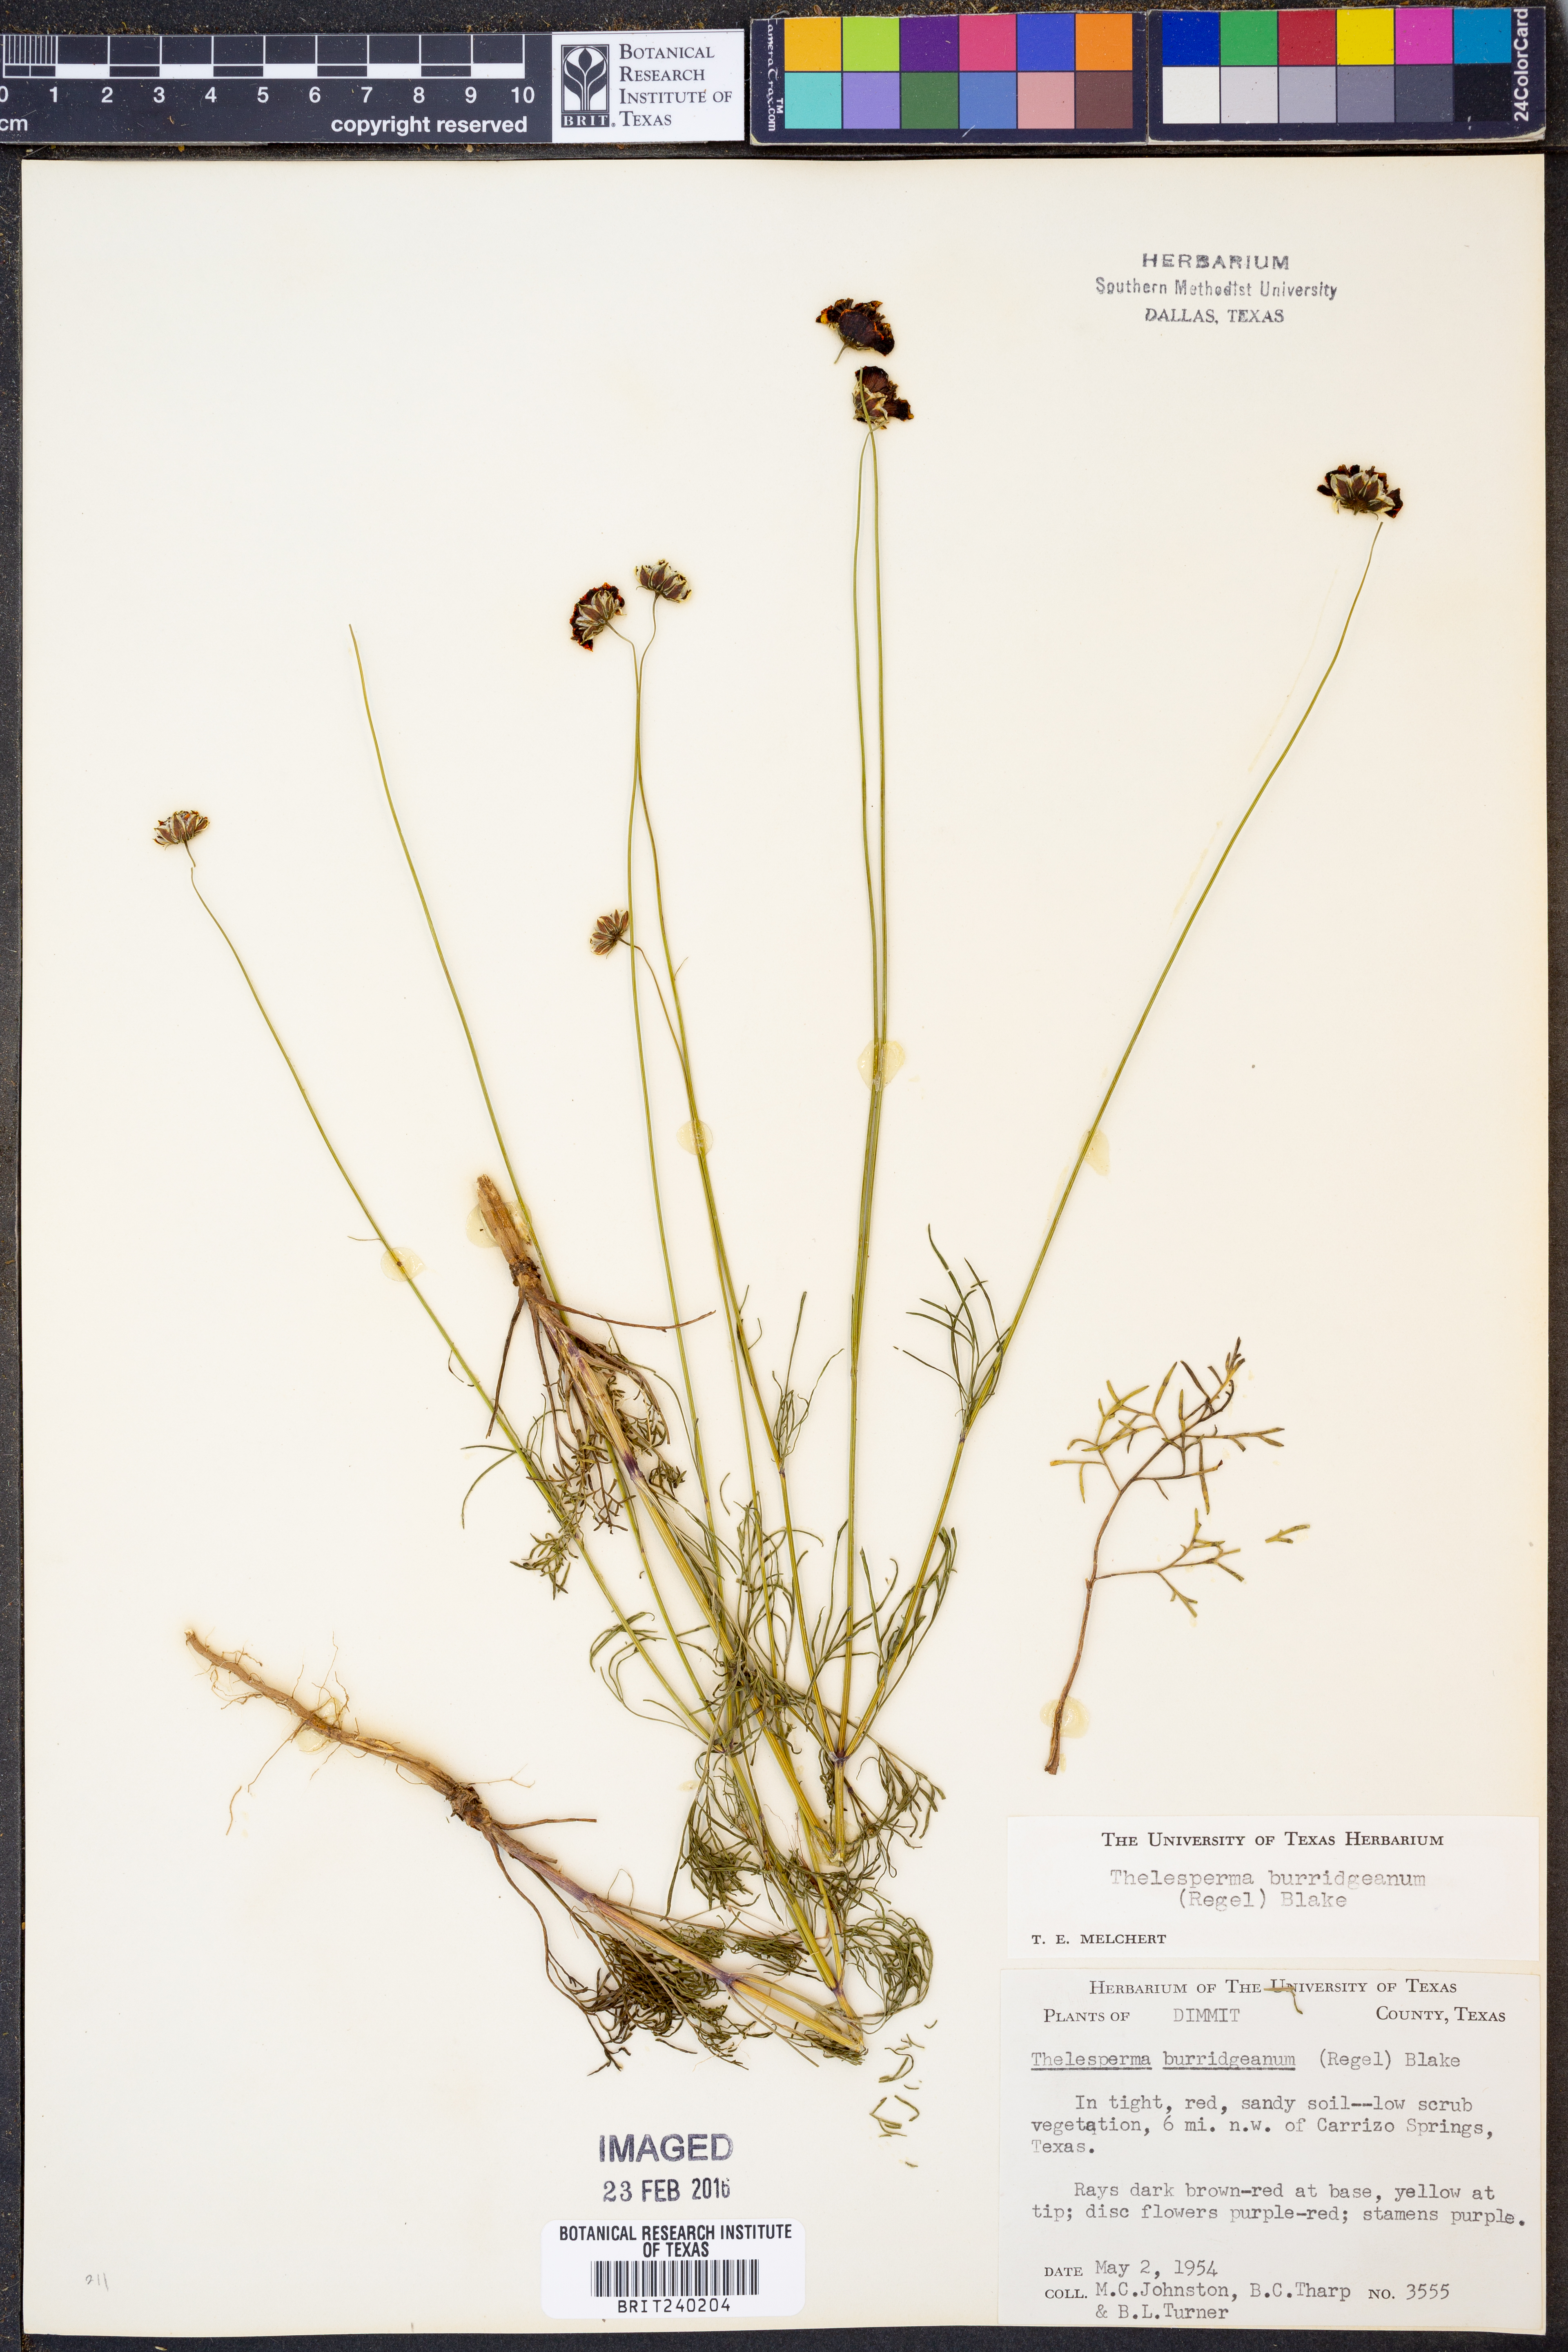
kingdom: Plantae
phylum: Tracheophyta
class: Magnoliopsida
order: Asterales
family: Asteraceae
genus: Thelesperma
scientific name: Thelesperma burridgeanum
